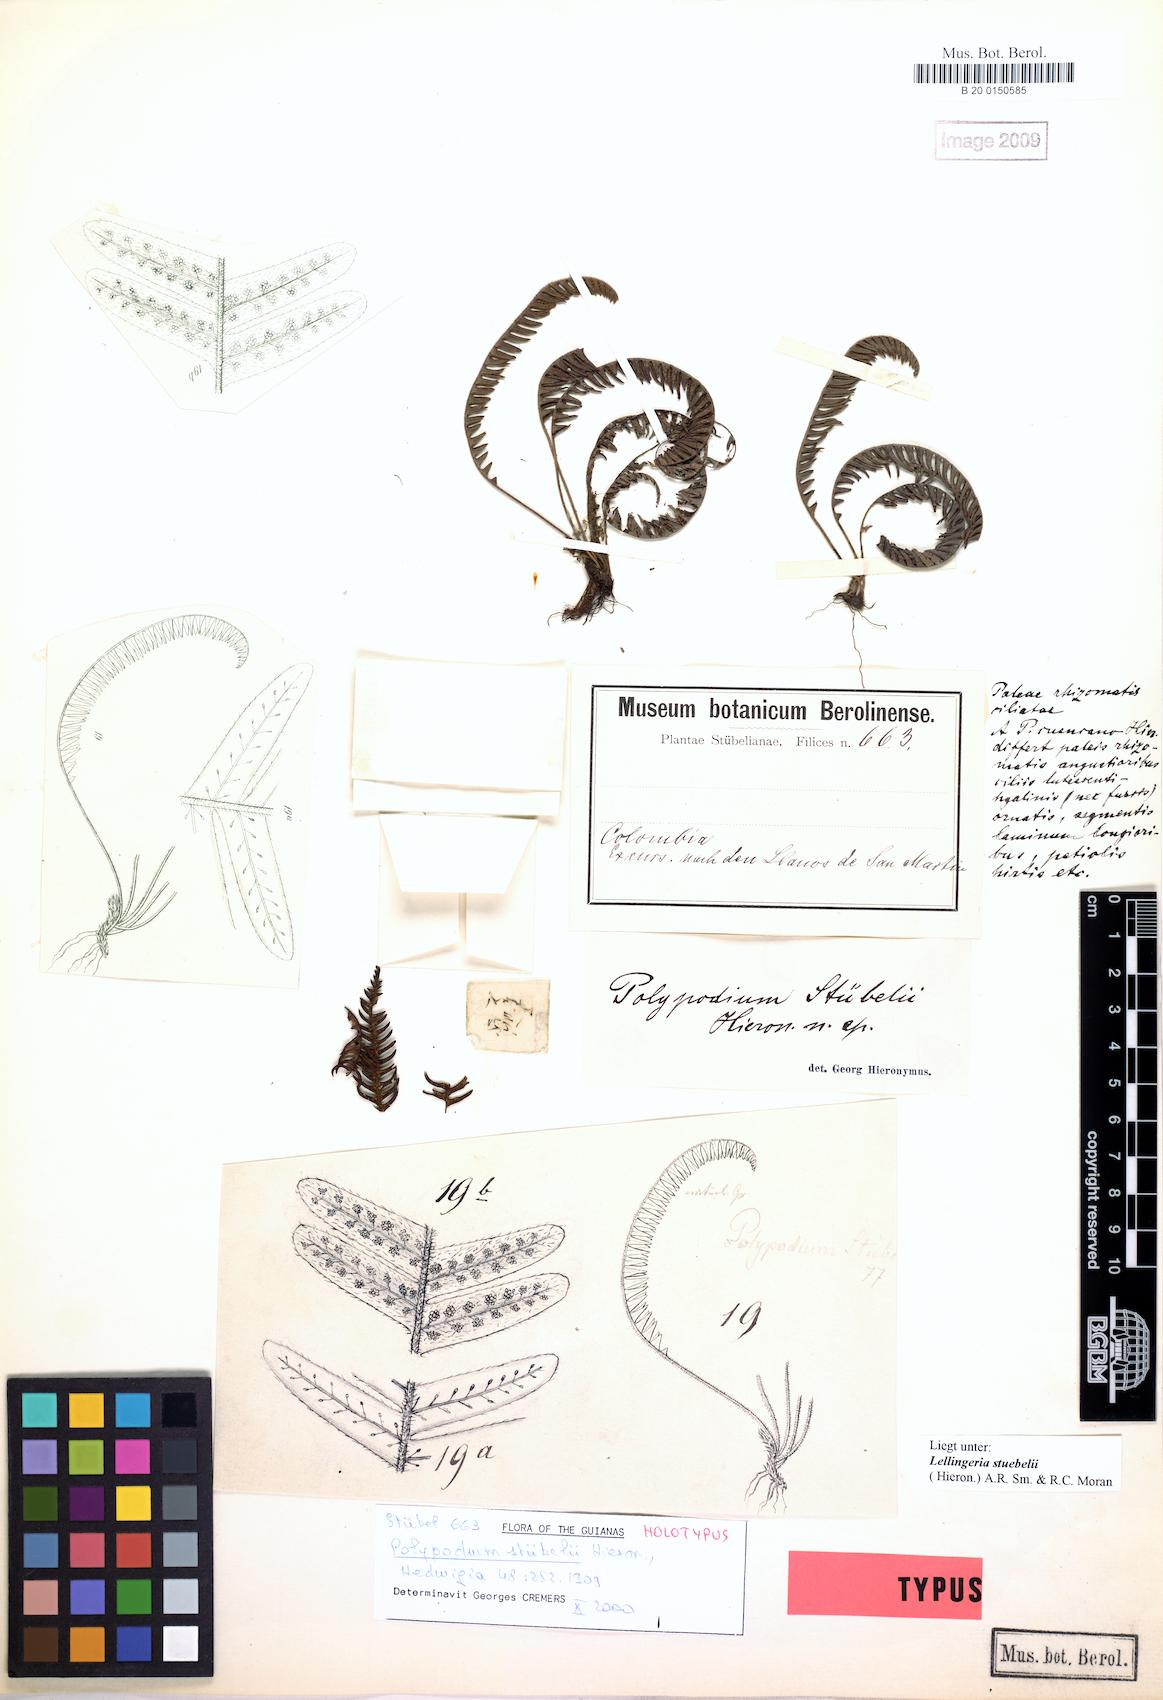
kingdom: Plantae
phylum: Tracheophyta
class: Polypodiopsida
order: Polypodiales
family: Polypodiaceae
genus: Ascogrammitis
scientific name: Ascogrammitis stuebelii
